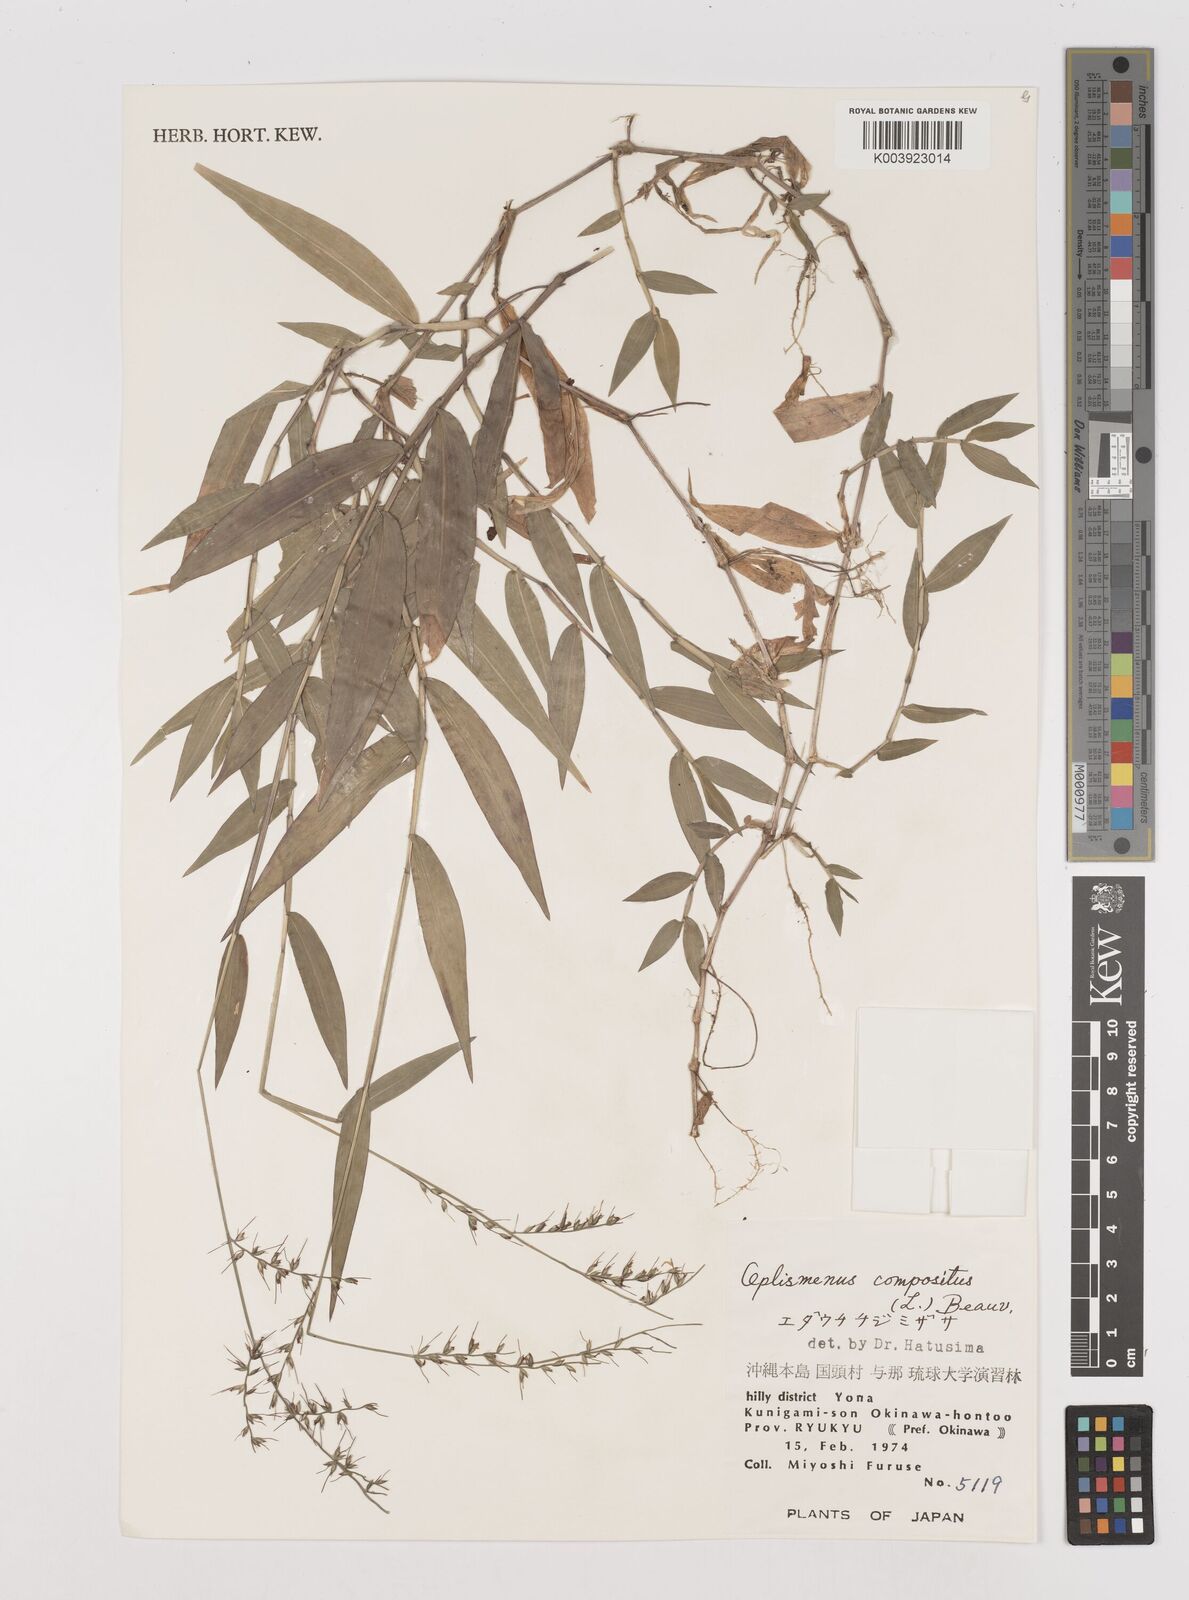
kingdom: Plantae
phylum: Tracheophyta
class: Liliopsida
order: Poales
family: Poaceae
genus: Oplismenus
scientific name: Oplismenus compositus
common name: Running mountain grass
